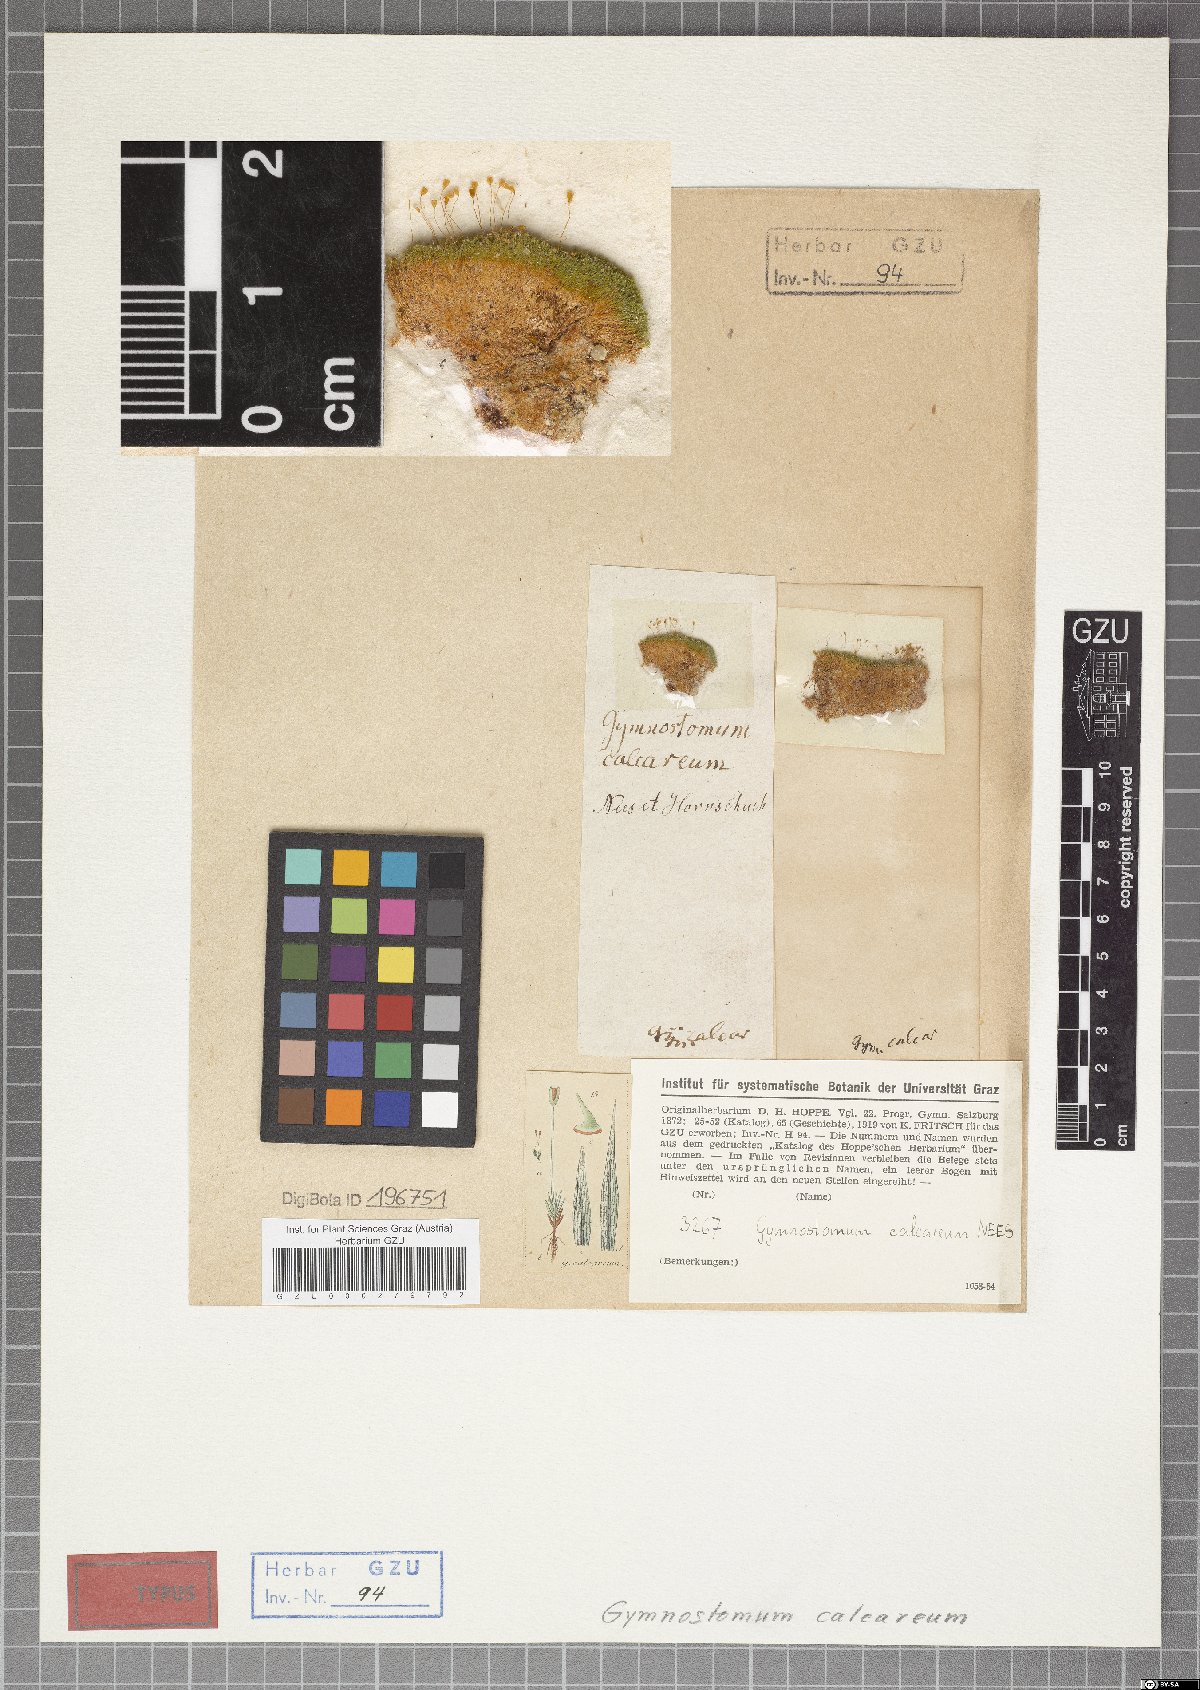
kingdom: Plantae
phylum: Bryophyta
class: Bryopsida
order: Pottiales
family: Pottiaceae
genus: Gymnostomum
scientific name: Gymnostomum calcareum
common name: Blunt-leaf tufa-moss
